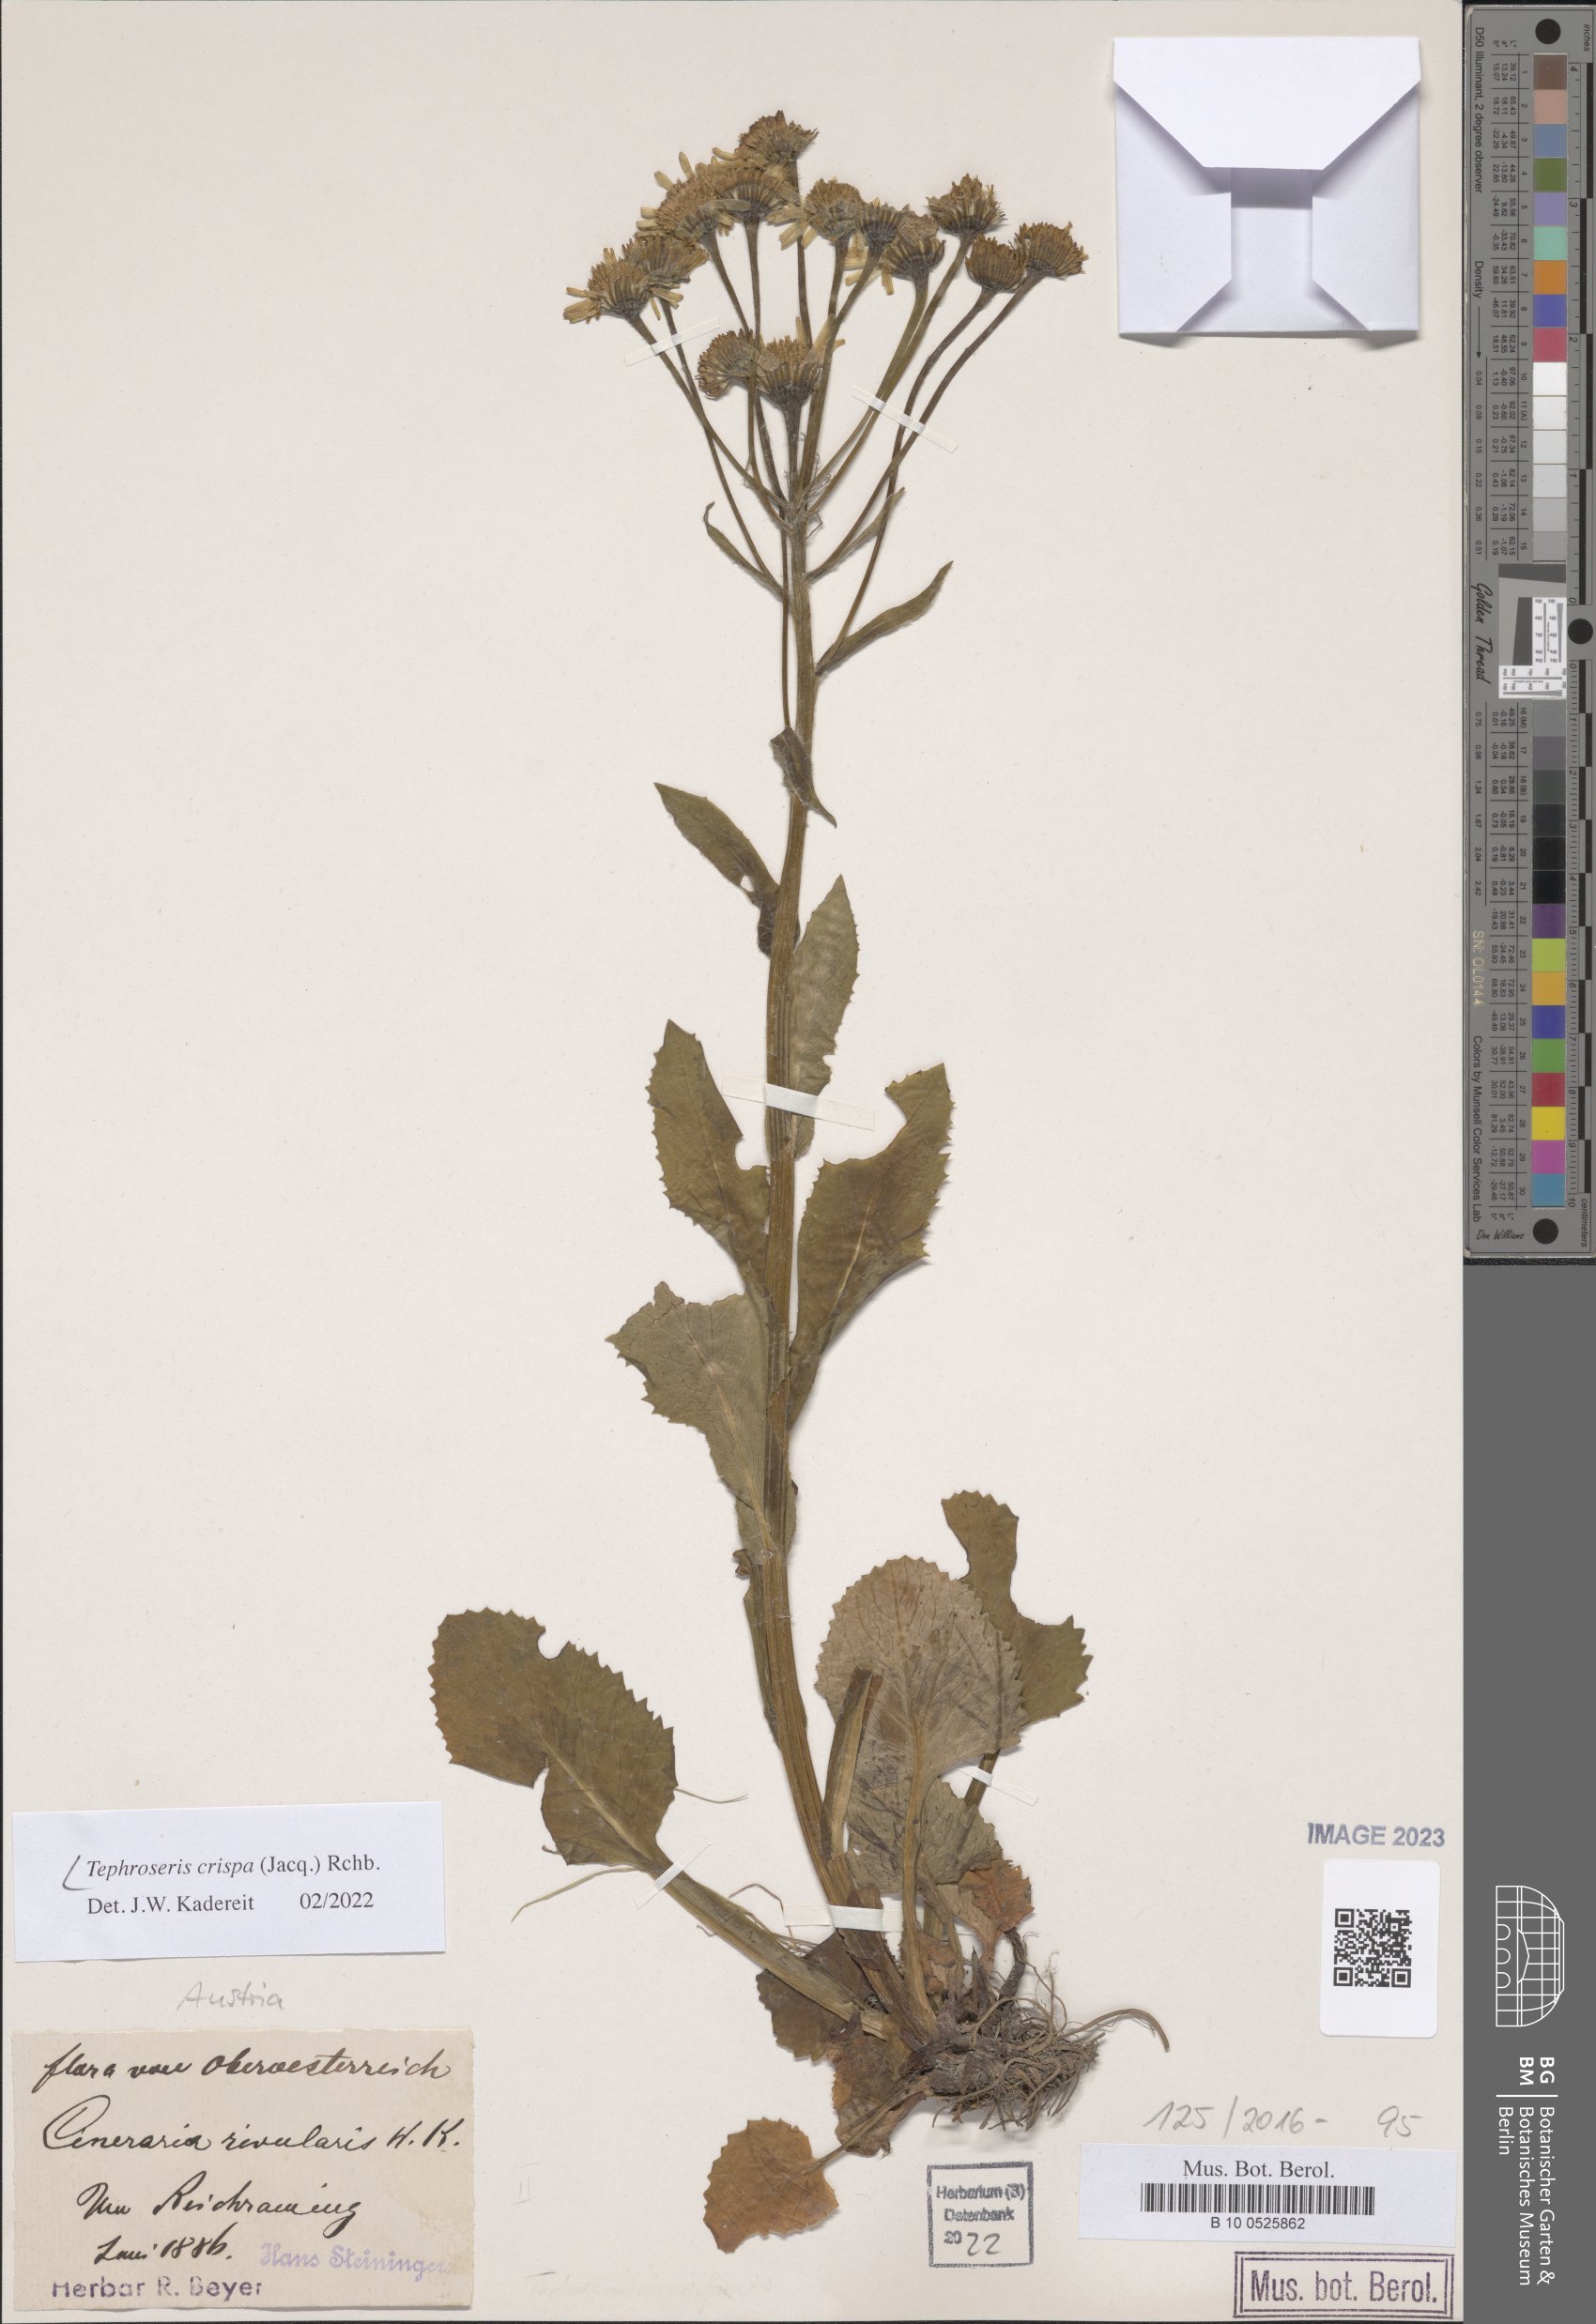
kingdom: Plantae
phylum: Tracheophyta
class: Magnoliopsida
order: Asterales
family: Asteraceae
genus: Tephroseris
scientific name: Tephroseris crispa
